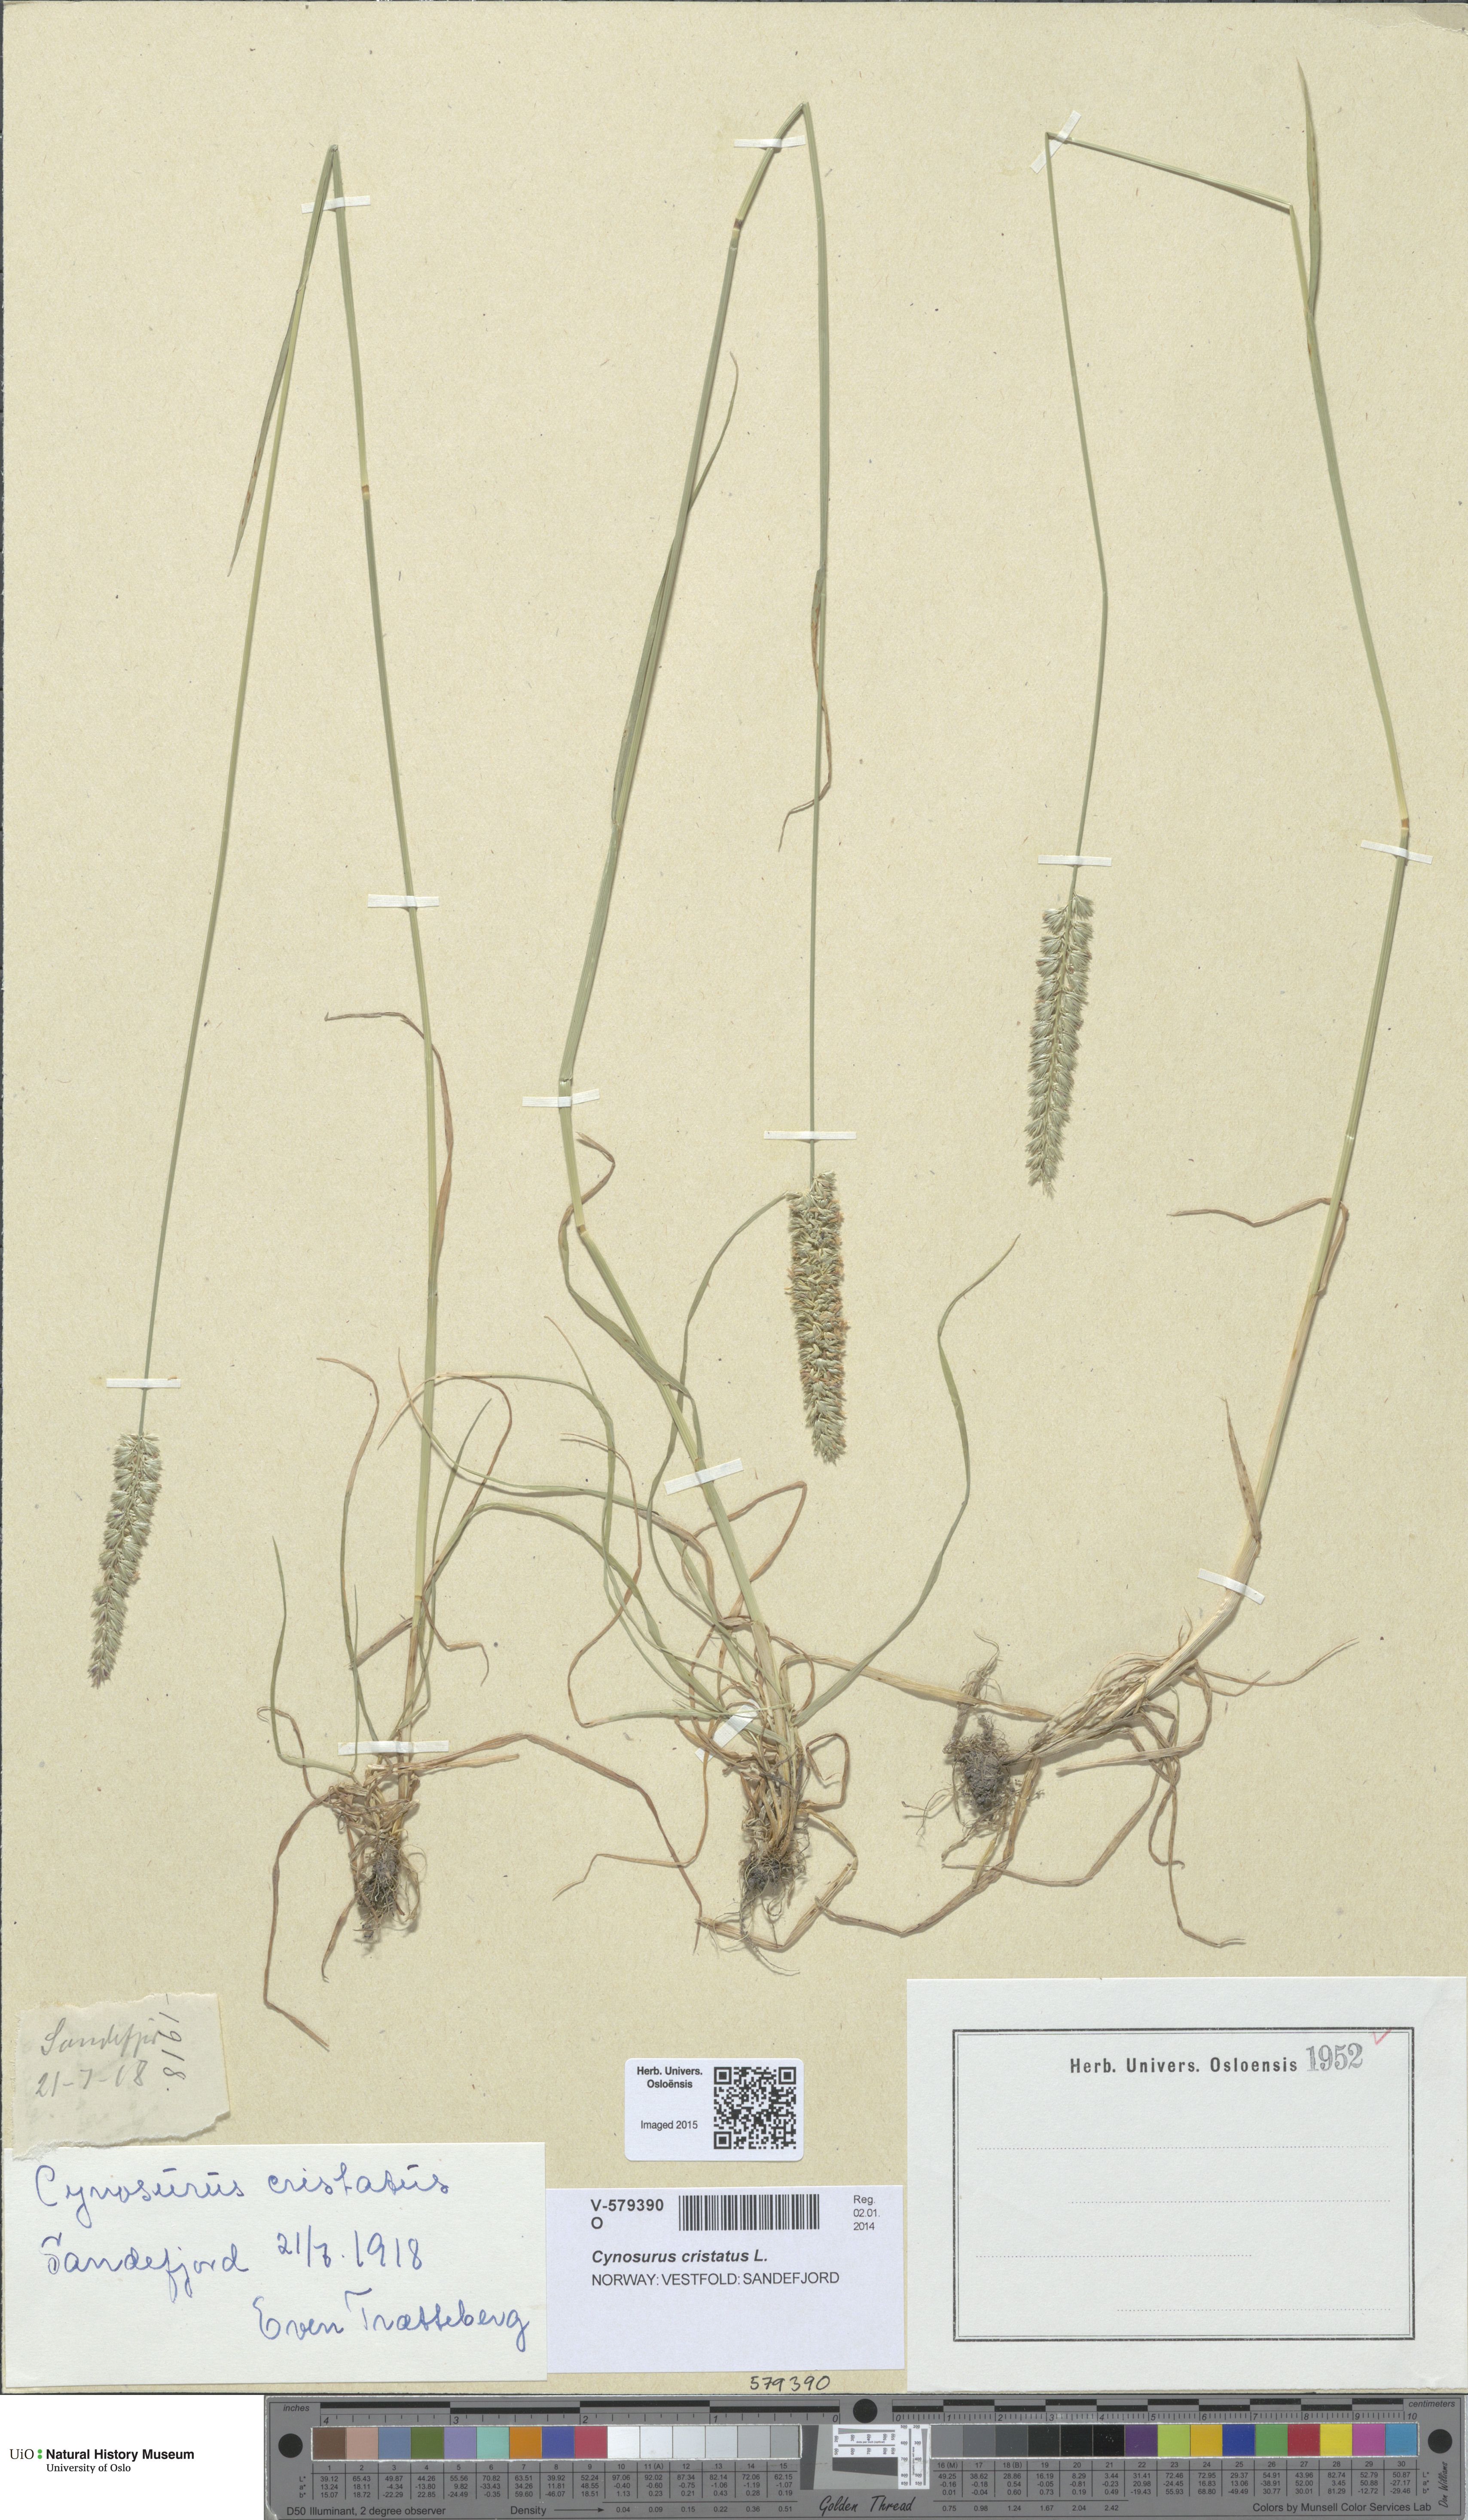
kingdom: Plantae
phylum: Tracheophyta
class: Liliopsida
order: Poales
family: Poaceae
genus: Cynosurus
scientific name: Cynosurus cristatus
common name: Crested dog's-tail
